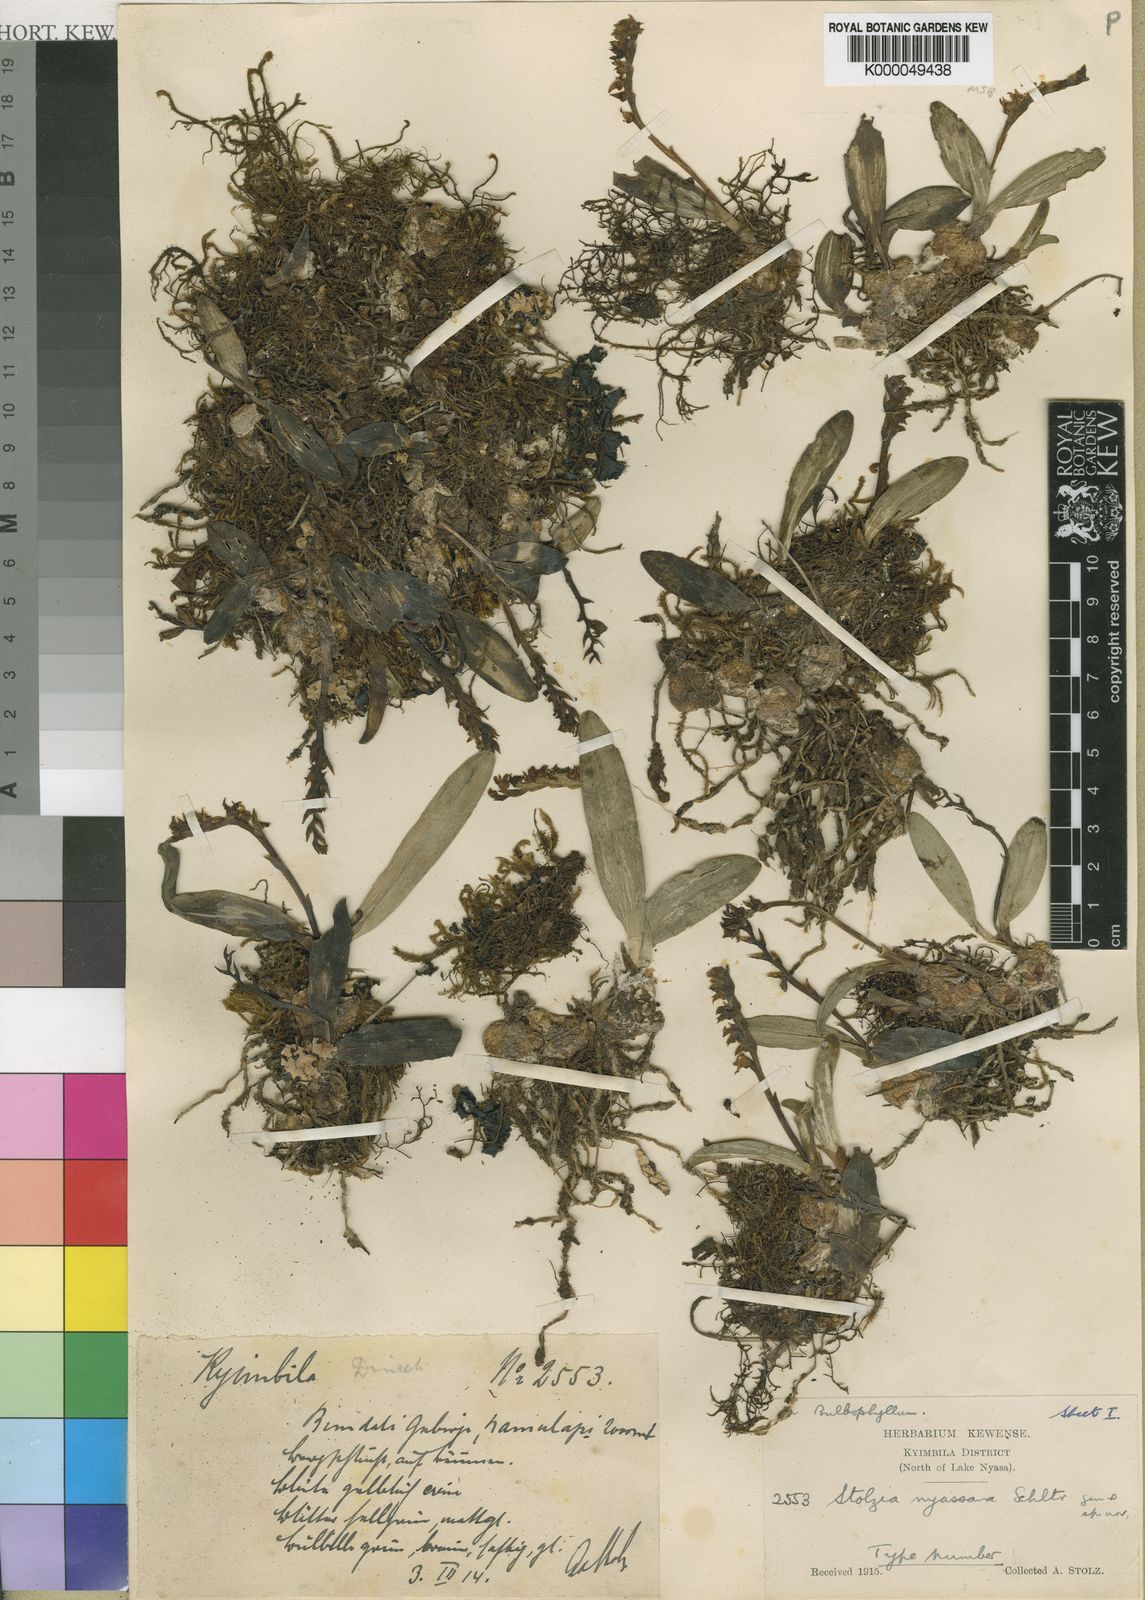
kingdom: Plantae
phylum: Tracheophyta
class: Liliopsida
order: Asparagales
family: Orchidaceae
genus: Porpax
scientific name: Porpax nyassana
